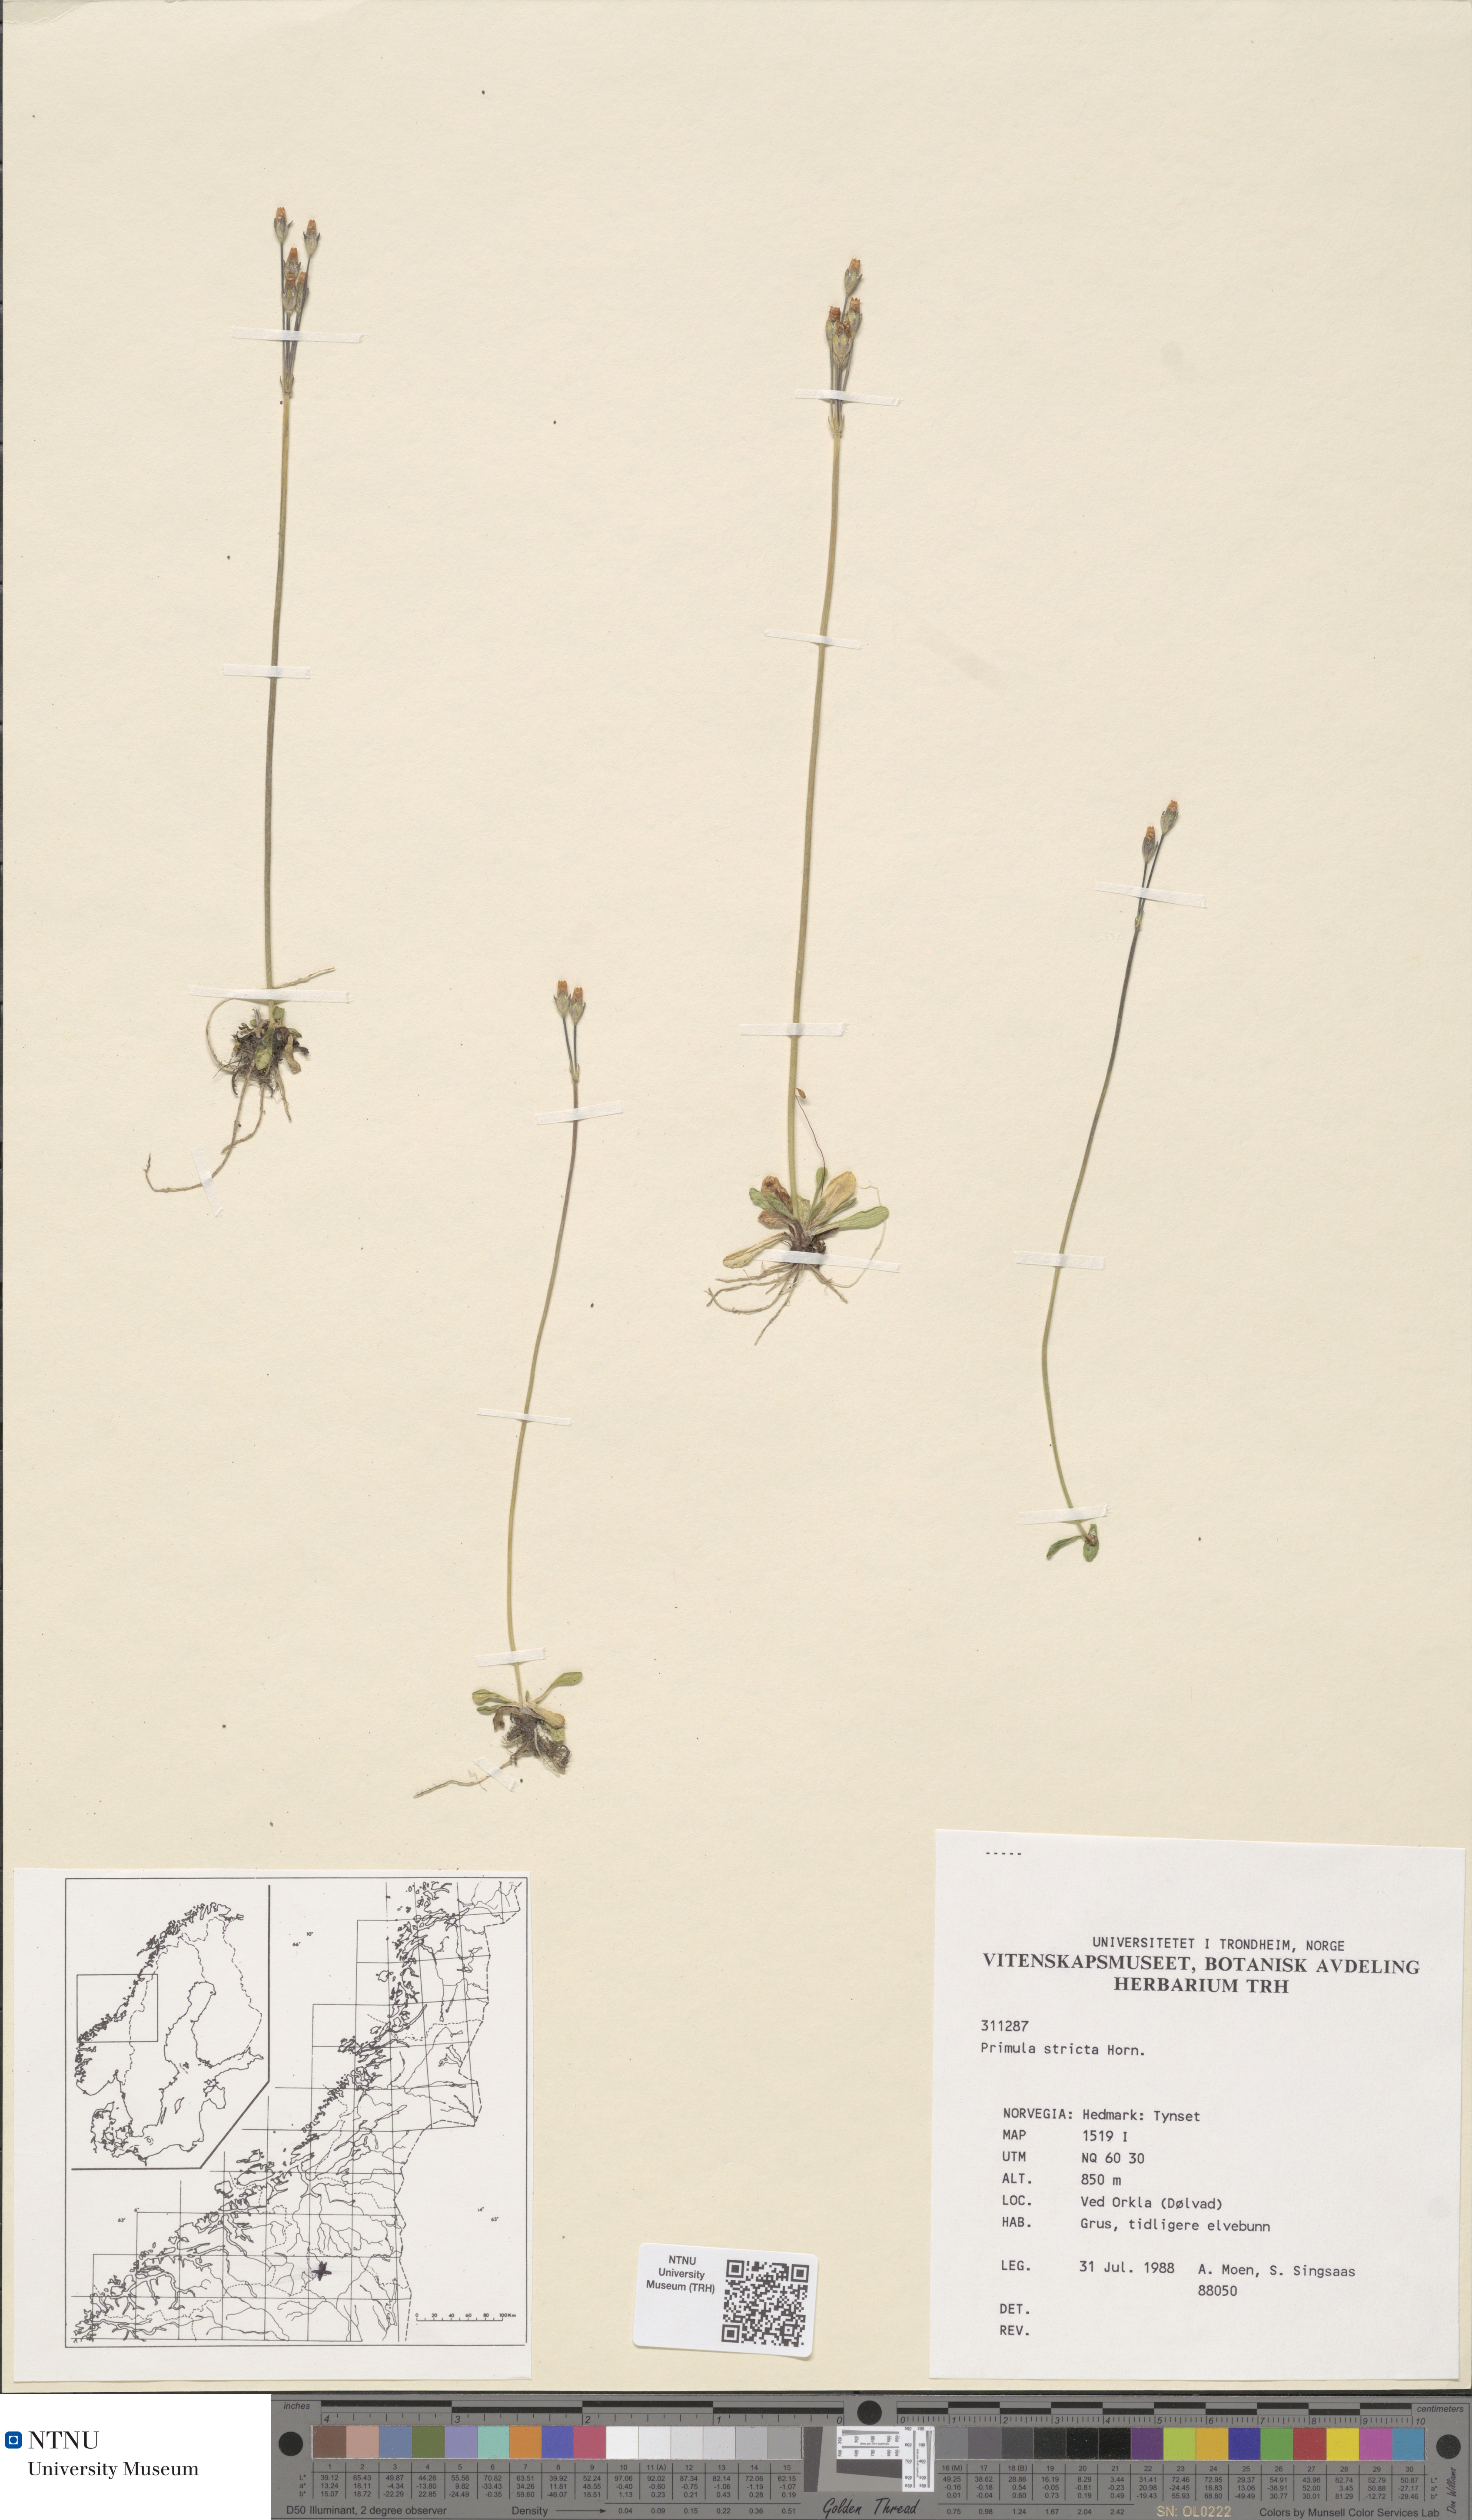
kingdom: Plantae
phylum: Tracheophyta
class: Magnoliopsida
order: Ericales
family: Primulaceae
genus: Primula
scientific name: Primula stricta
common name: Coastal primrose
